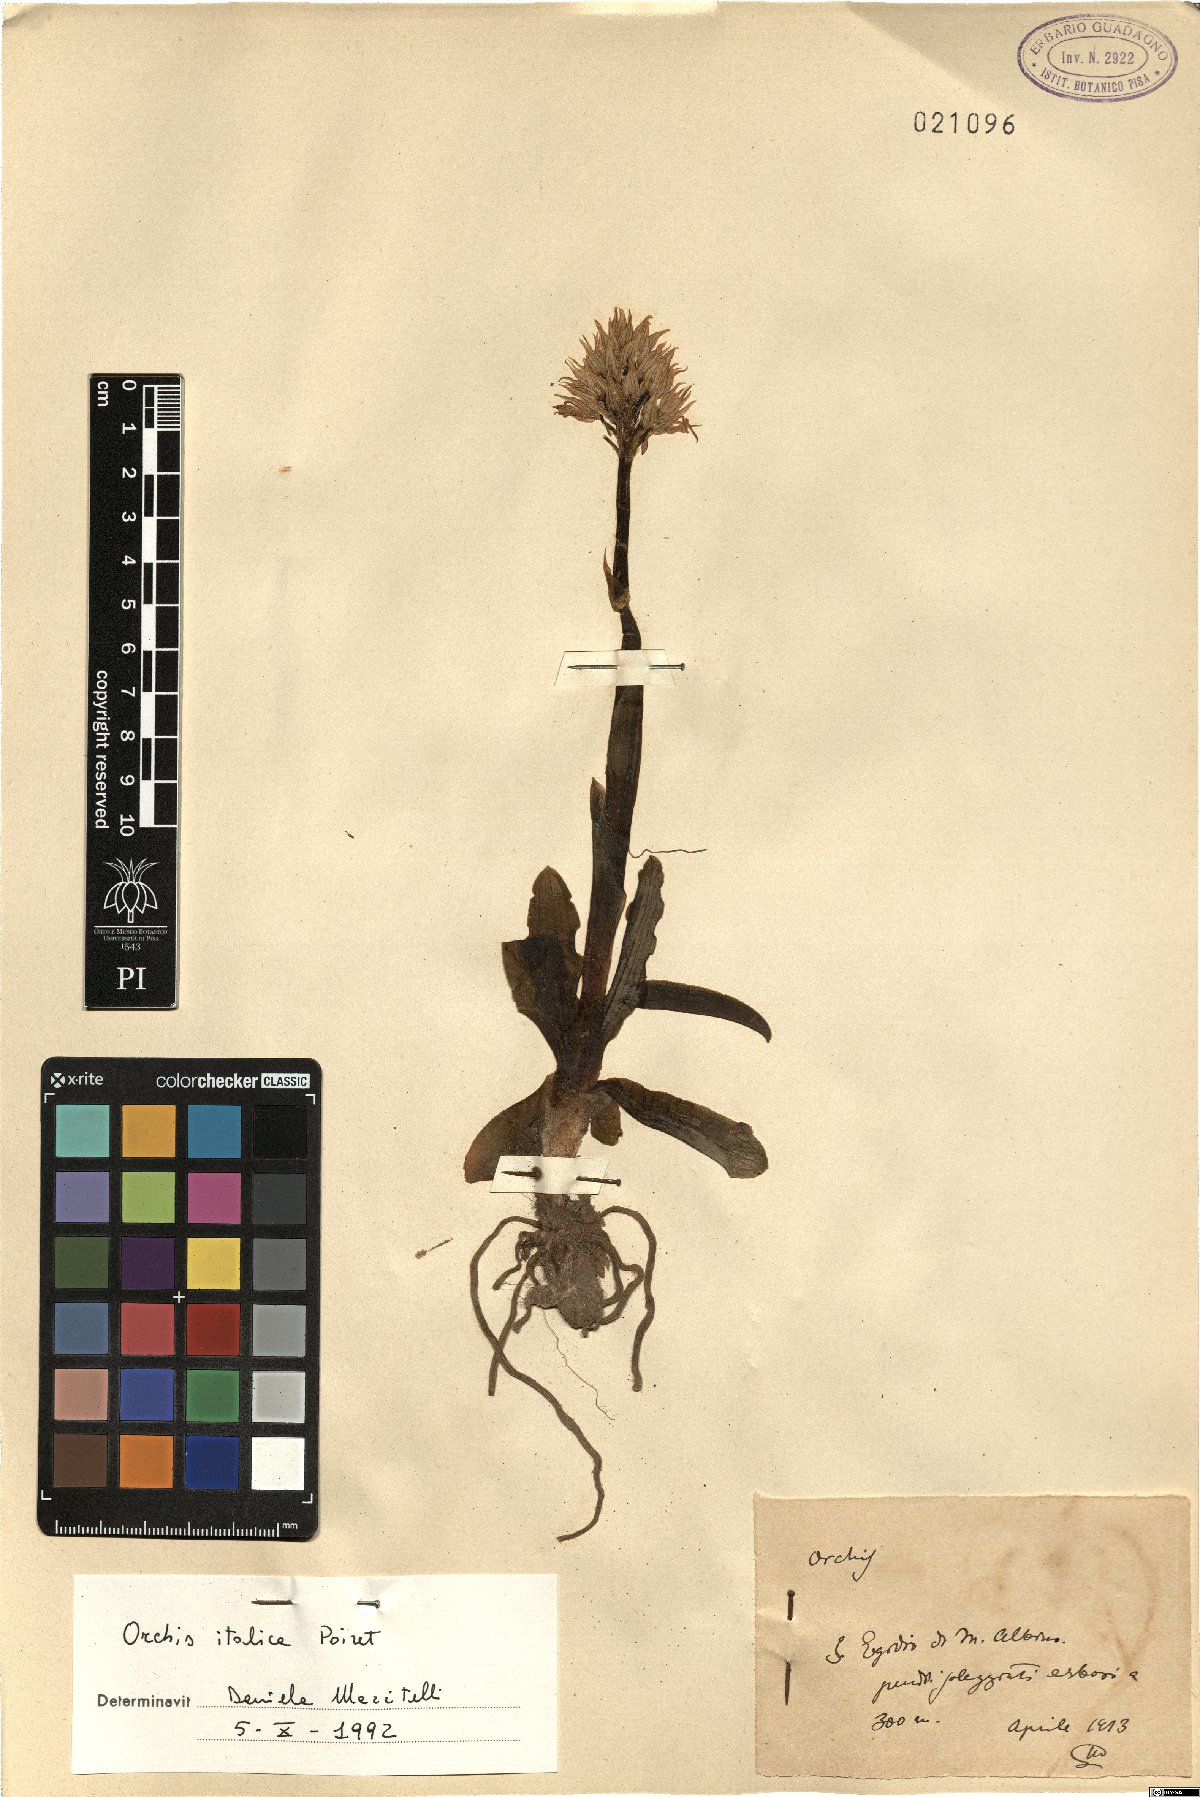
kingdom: Plantae
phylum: Tracheophyta
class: Liliopsida
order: Asparagales
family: Orchidaceae
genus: Orchis
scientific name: Orchis italica
